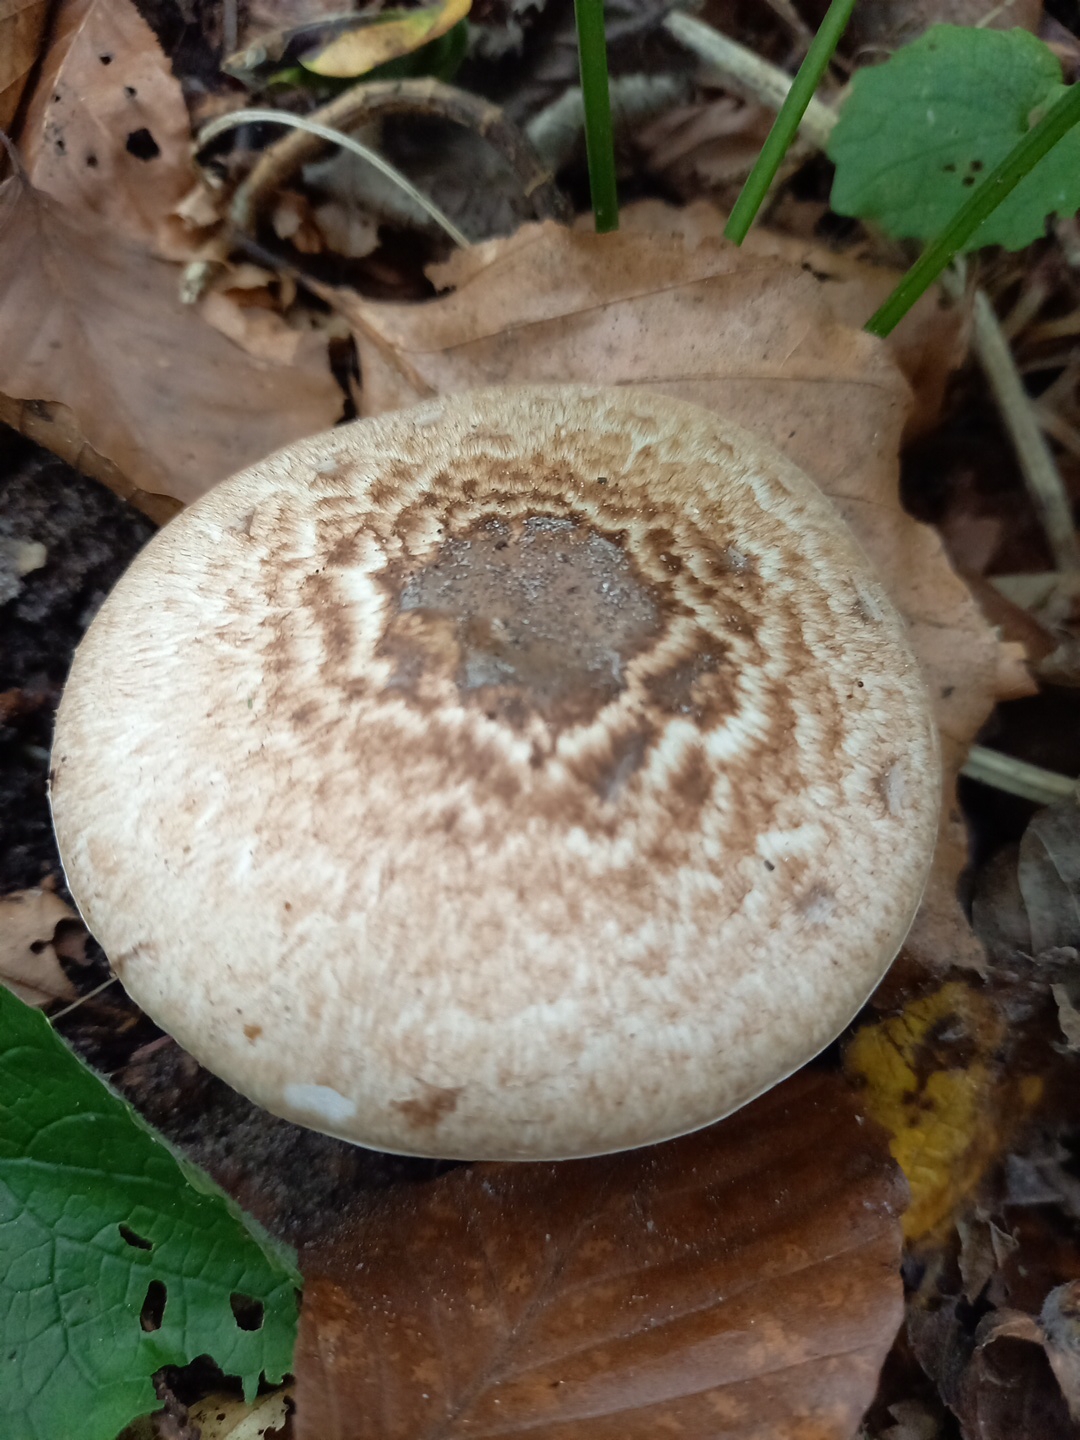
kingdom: Fungi
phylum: Basidiomycota
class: Agaricomycetes
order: Agaricales
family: Agaricaceae
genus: Agaricus
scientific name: Agaricus impudicus
